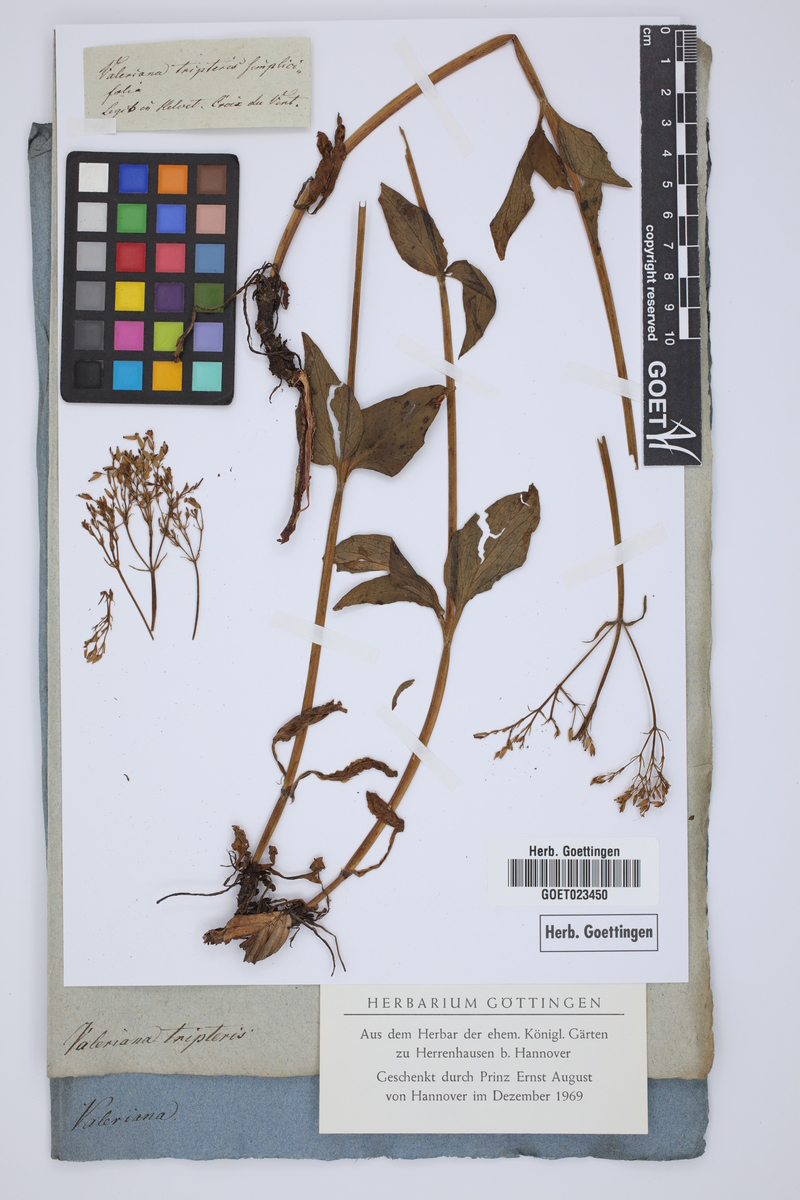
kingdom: Plantae
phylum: Tracheophyta
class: Magnoliopsida
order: Dipsacales
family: Caprifoliaceae
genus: Valeriana
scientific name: Valeriana tripteris
